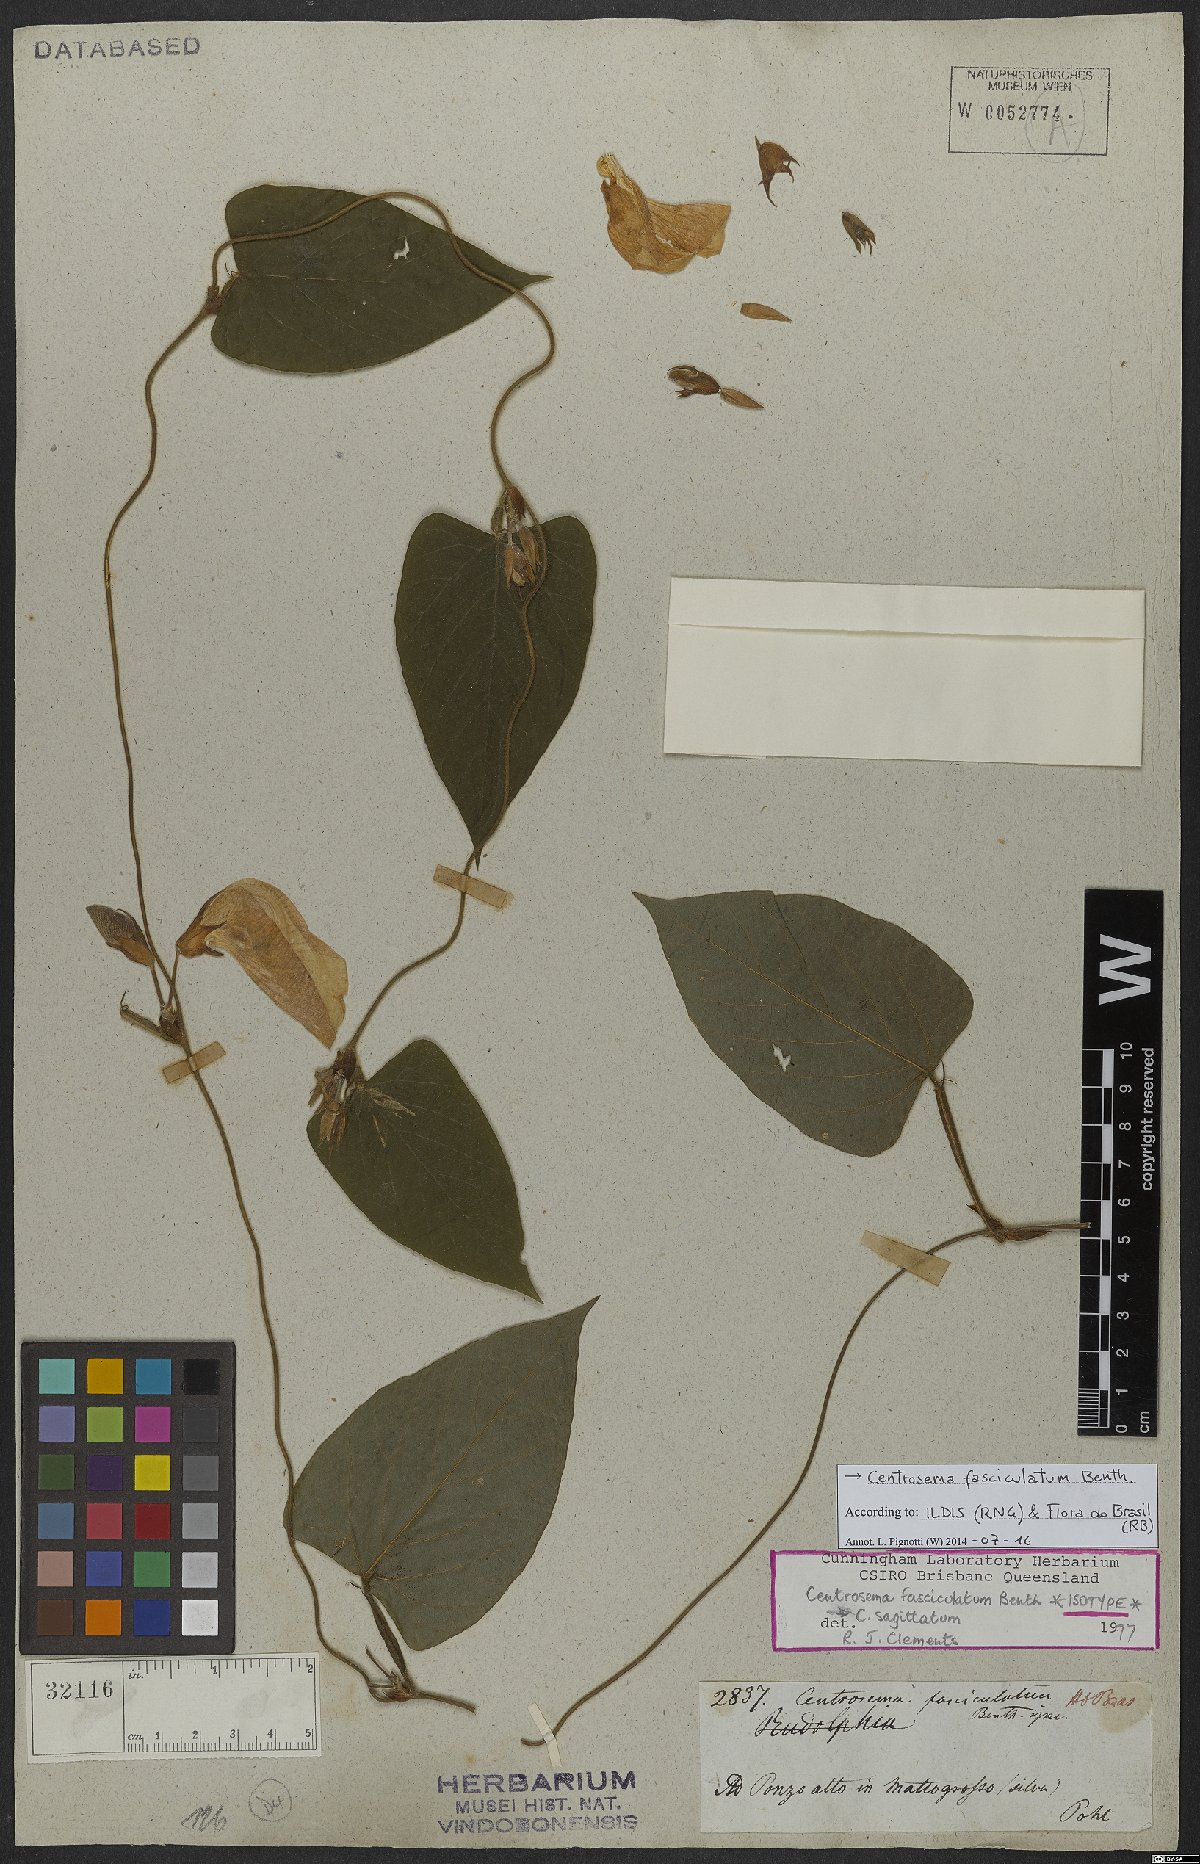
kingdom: Plantae
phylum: Tracheophyta
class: Magnoliopsida
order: Fabales
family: Fabaceae
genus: Centrosema
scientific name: Centrosema fasciculatum
